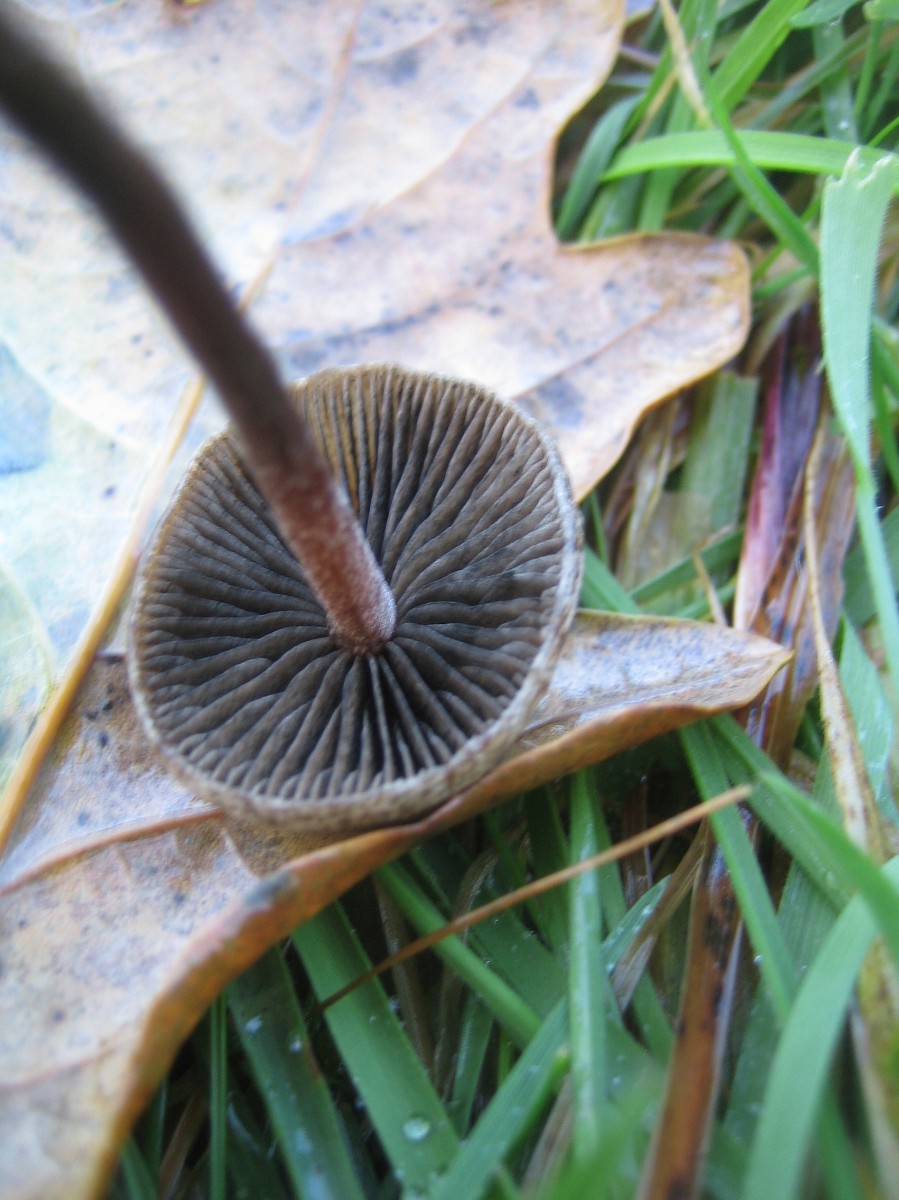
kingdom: Fungi
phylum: Basidiomycota
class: Agaricomycetes
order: Agaricales
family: Bolbitiaceae
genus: Panaeolus
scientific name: Panaeolus papilionaceus
